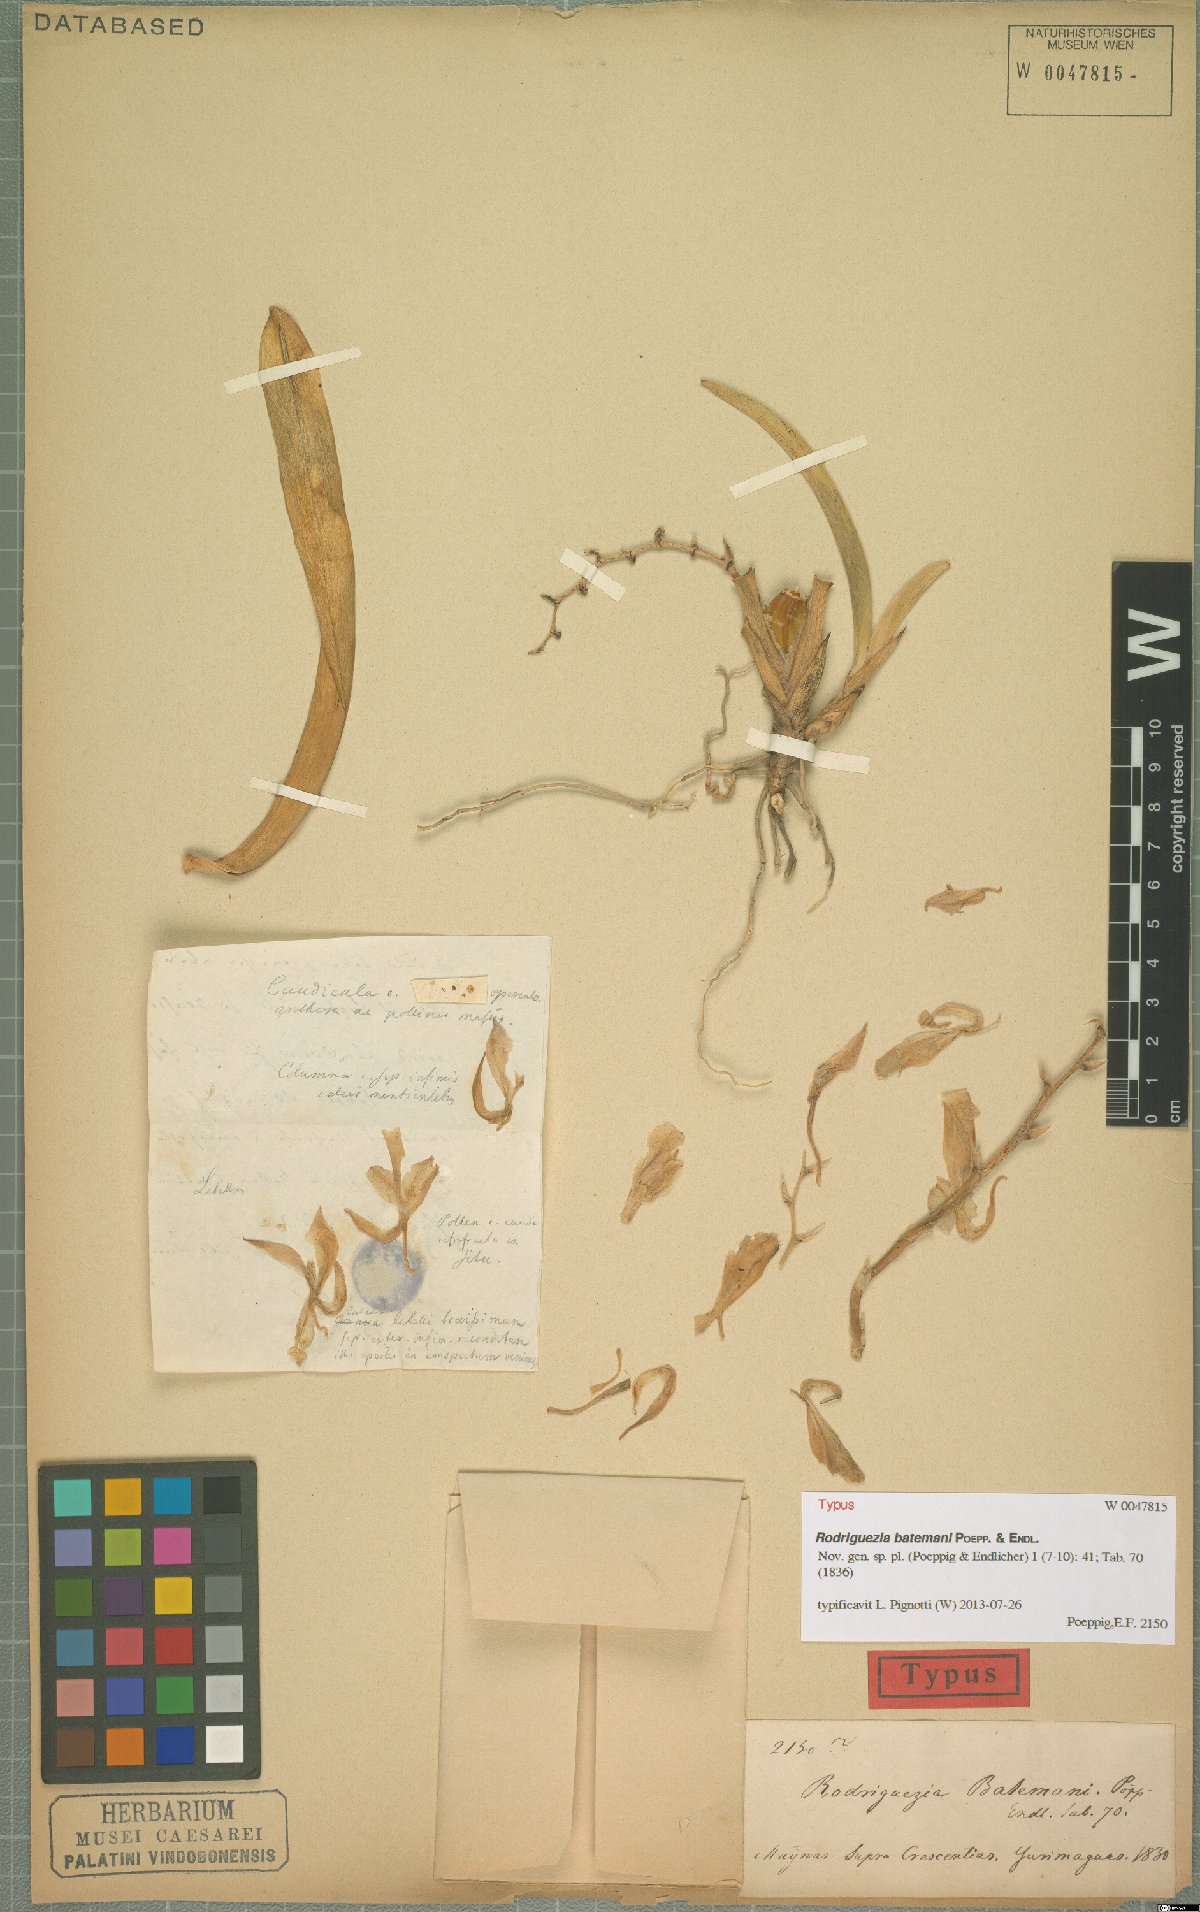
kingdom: Plantae
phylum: Tracheophyta
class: Liliopsida
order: Asparagales
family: Orchidaceae
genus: Rodriguezia
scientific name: Rodriguezia batemanii
